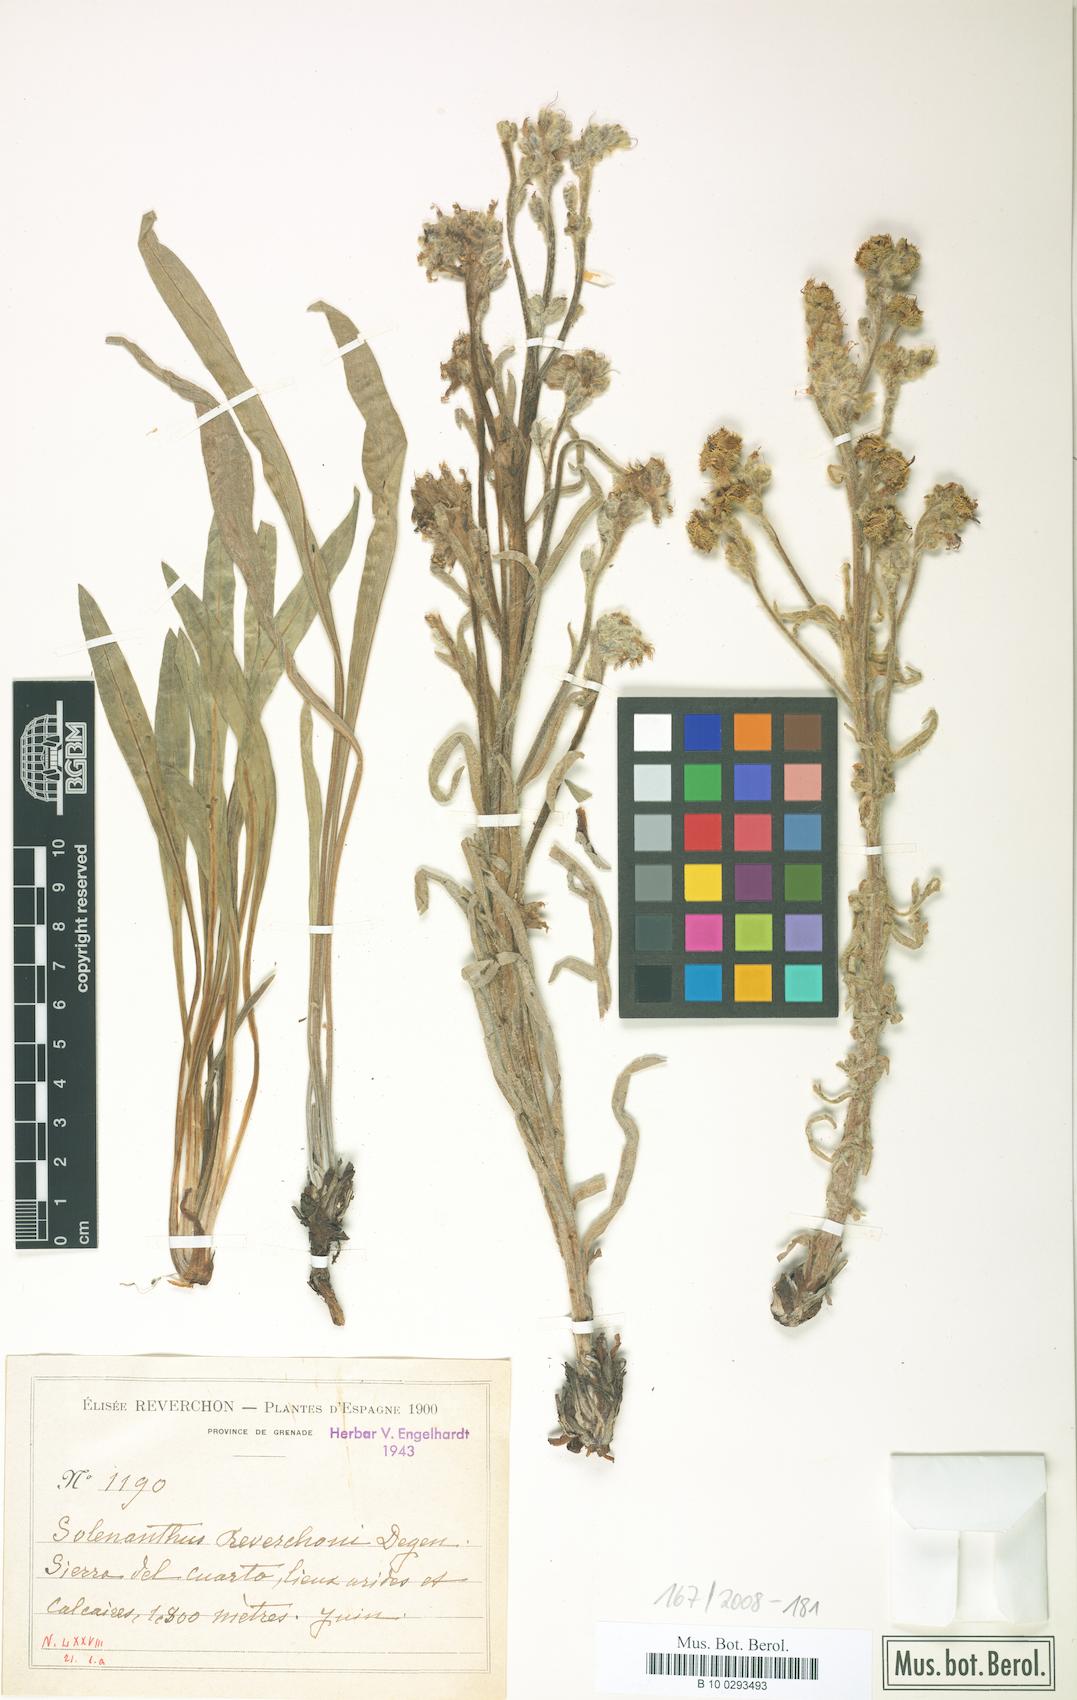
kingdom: Plantae
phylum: Tracheophyta
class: Magnoliopsida
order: Boraginales
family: Boraginaceae
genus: Solenanthus
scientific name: Solenanthus reverchonii
